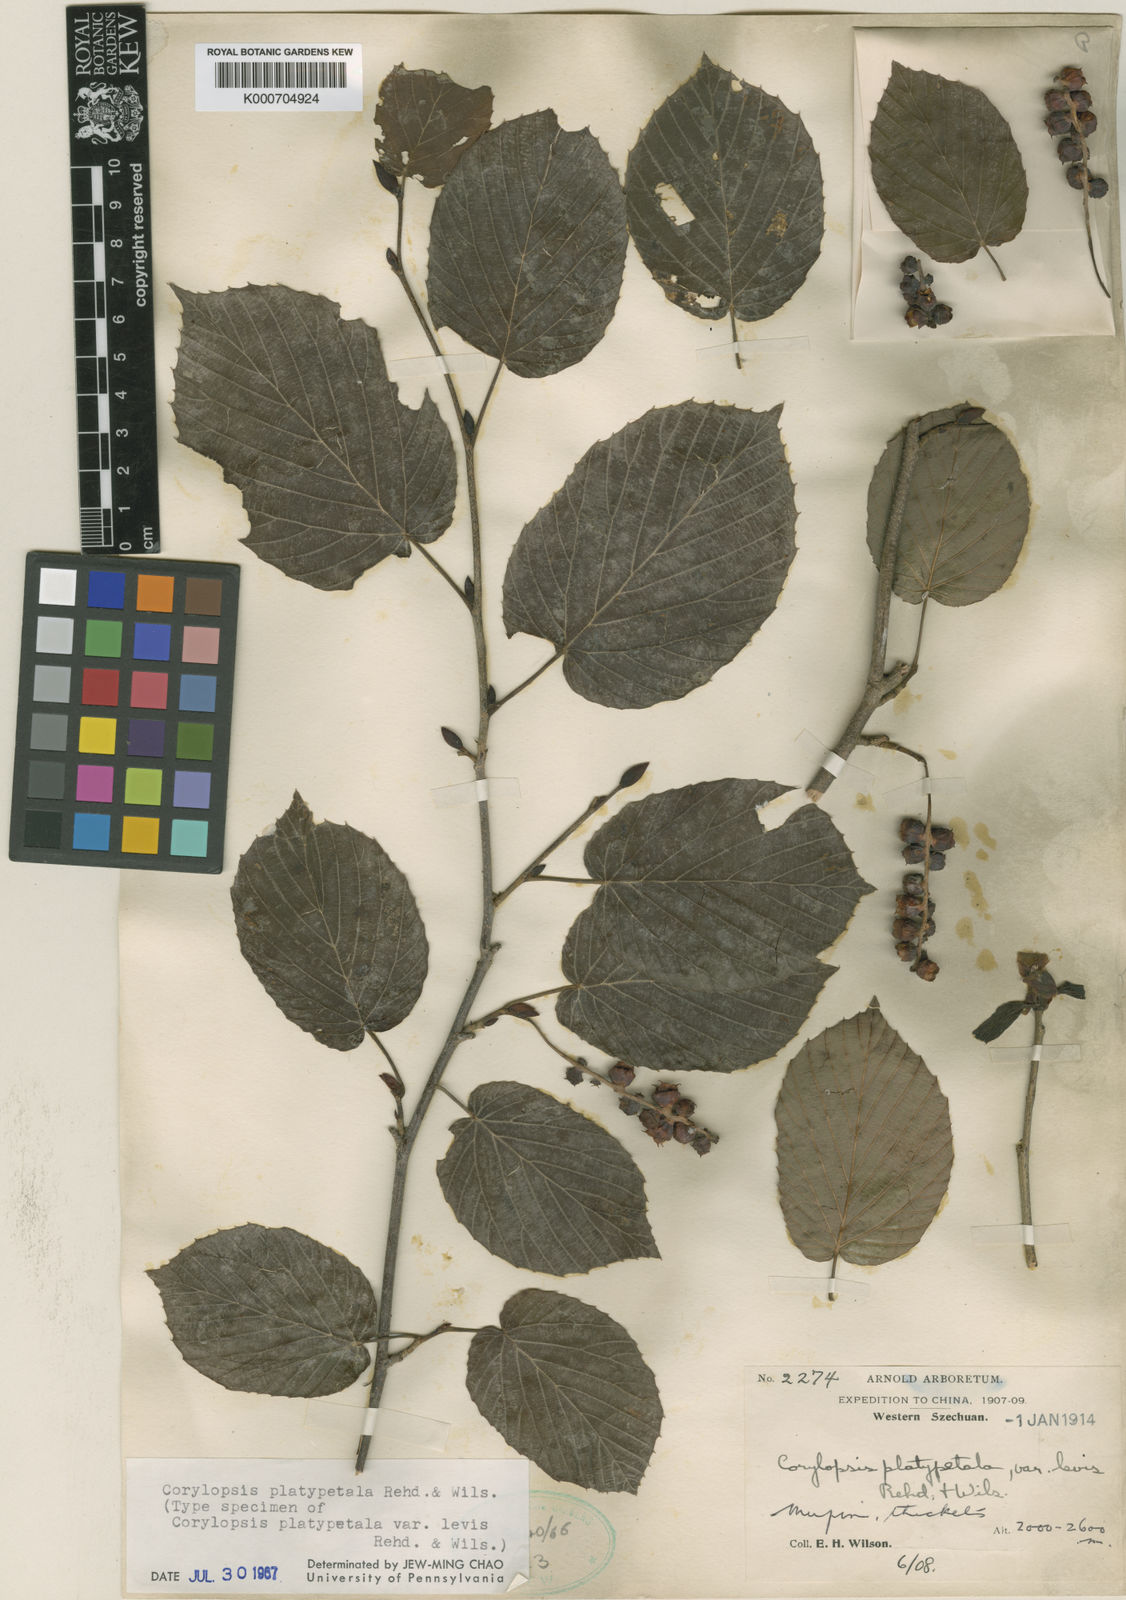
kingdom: Plantae
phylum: Tracheophyta
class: Magnoliopsida
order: Saxifragales
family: Hamamelidaceae
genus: Corylopsis
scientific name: Corylopsis sinensis
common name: Winter hazel
